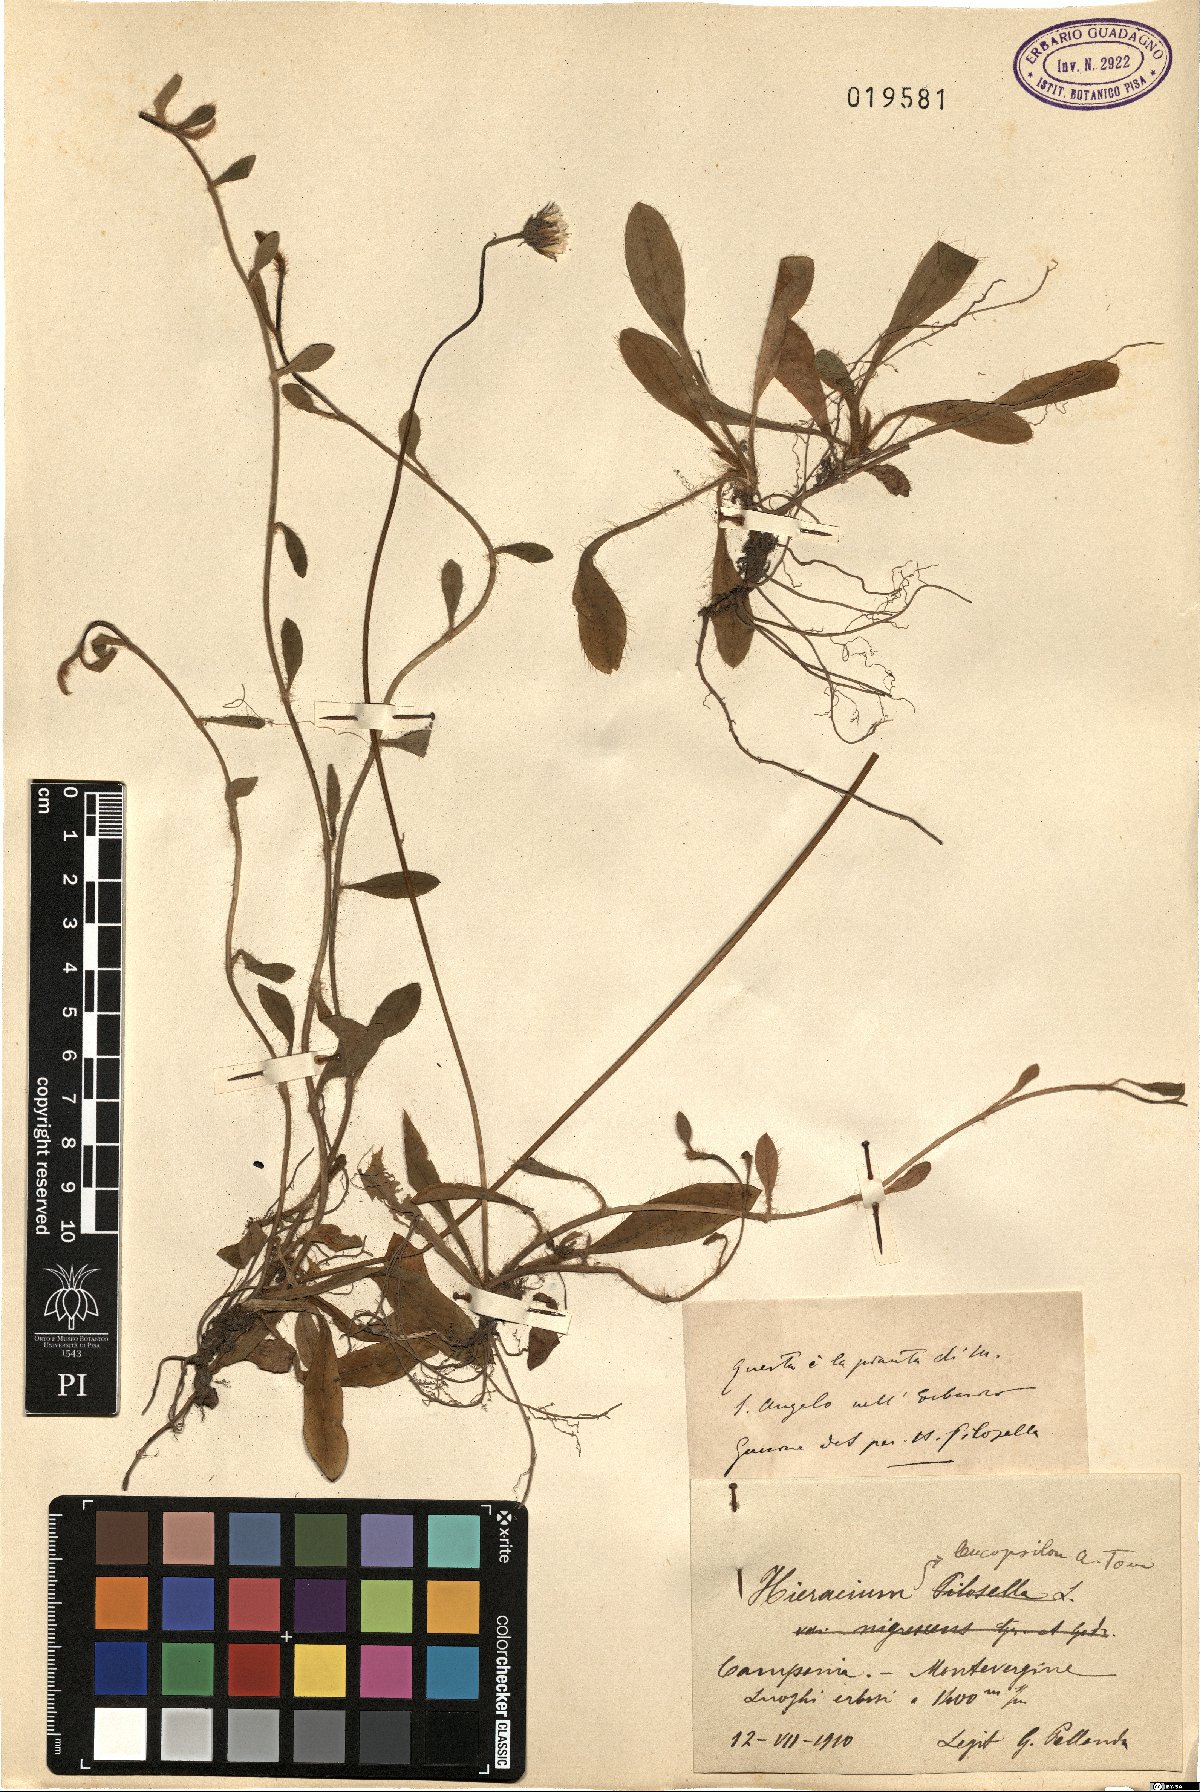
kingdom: Plantae
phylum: Tracheophyta
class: Magnoliopsida
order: Asterales
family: Asteraceae
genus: Pilosella
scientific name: Pilosella leucopsilon
